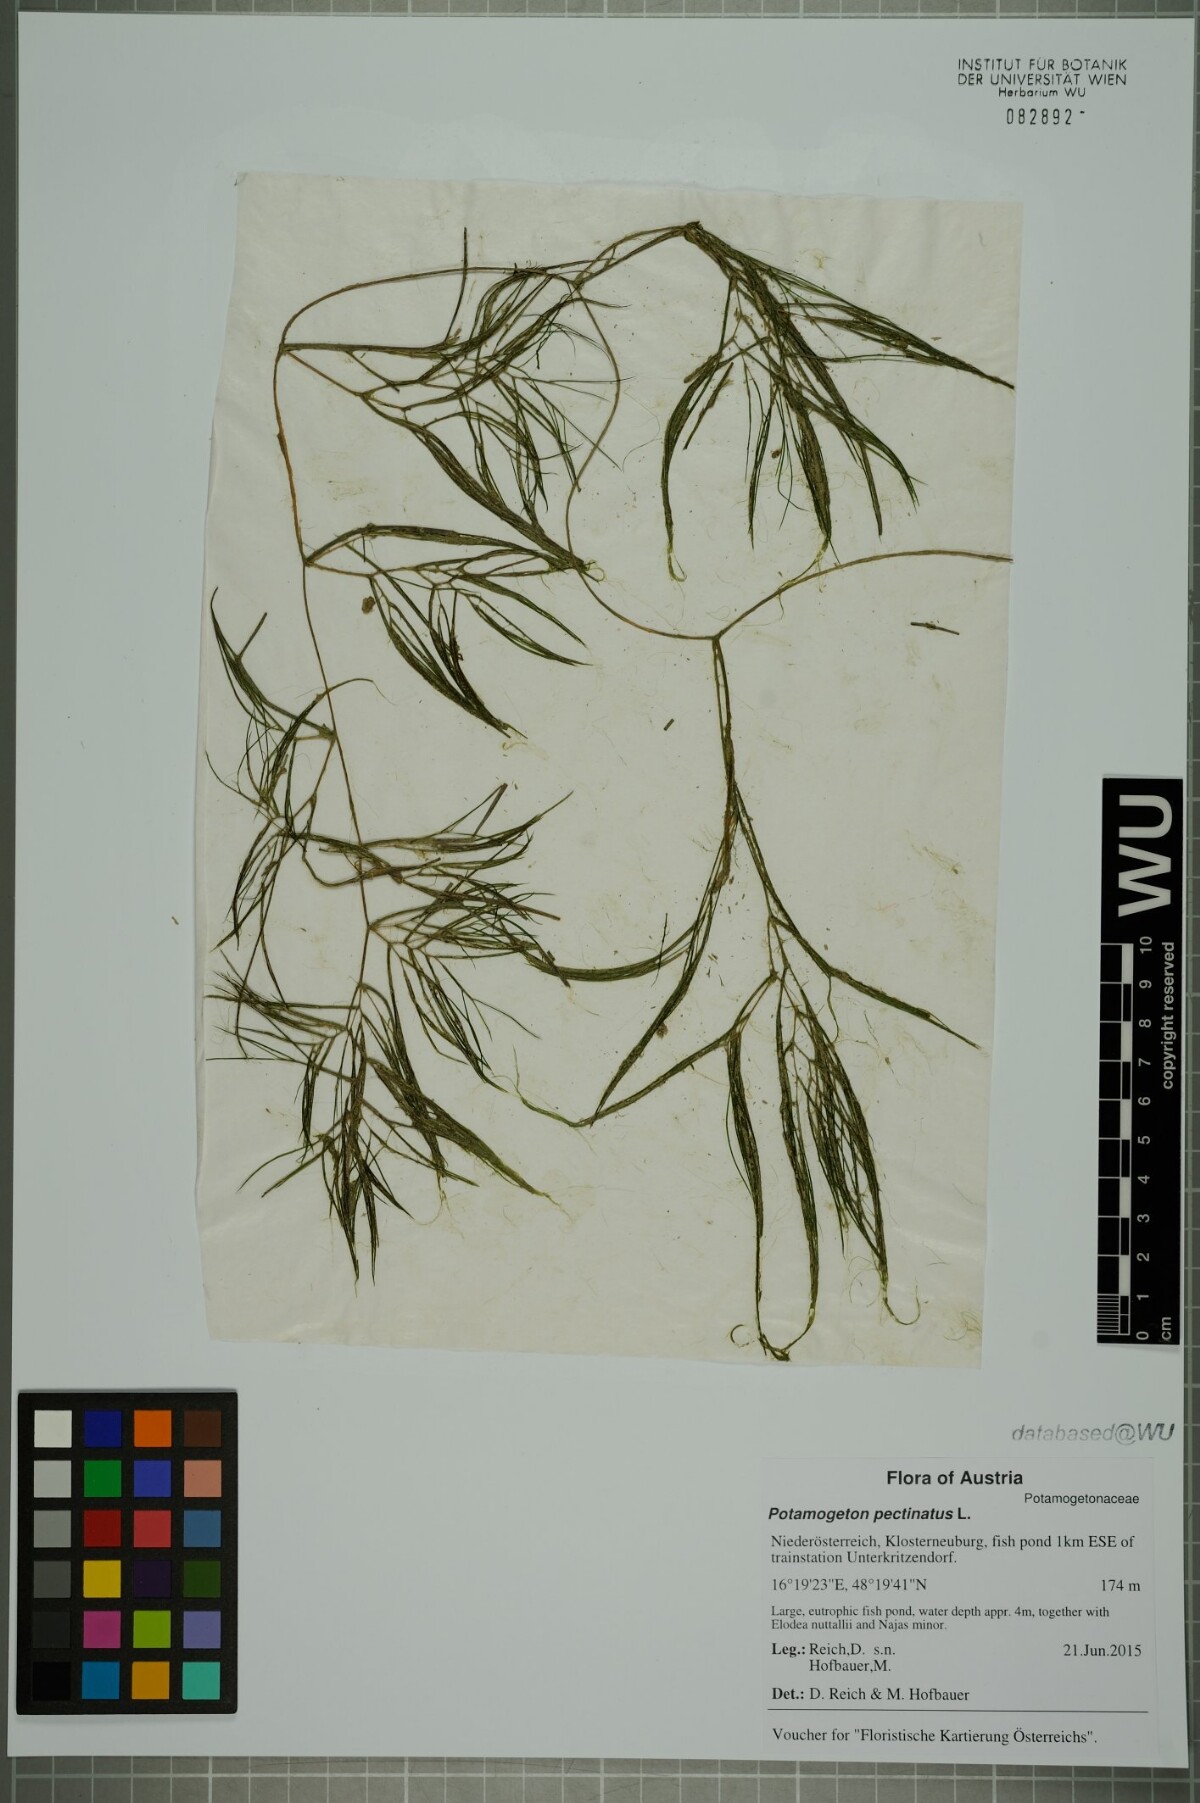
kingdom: Plantae
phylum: Tracheophyta
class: Liliopsida
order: Alismatales
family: Potamogetonaceae
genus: Stuckenia
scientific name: Stuckenia pectinata
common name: Sago pondweed
